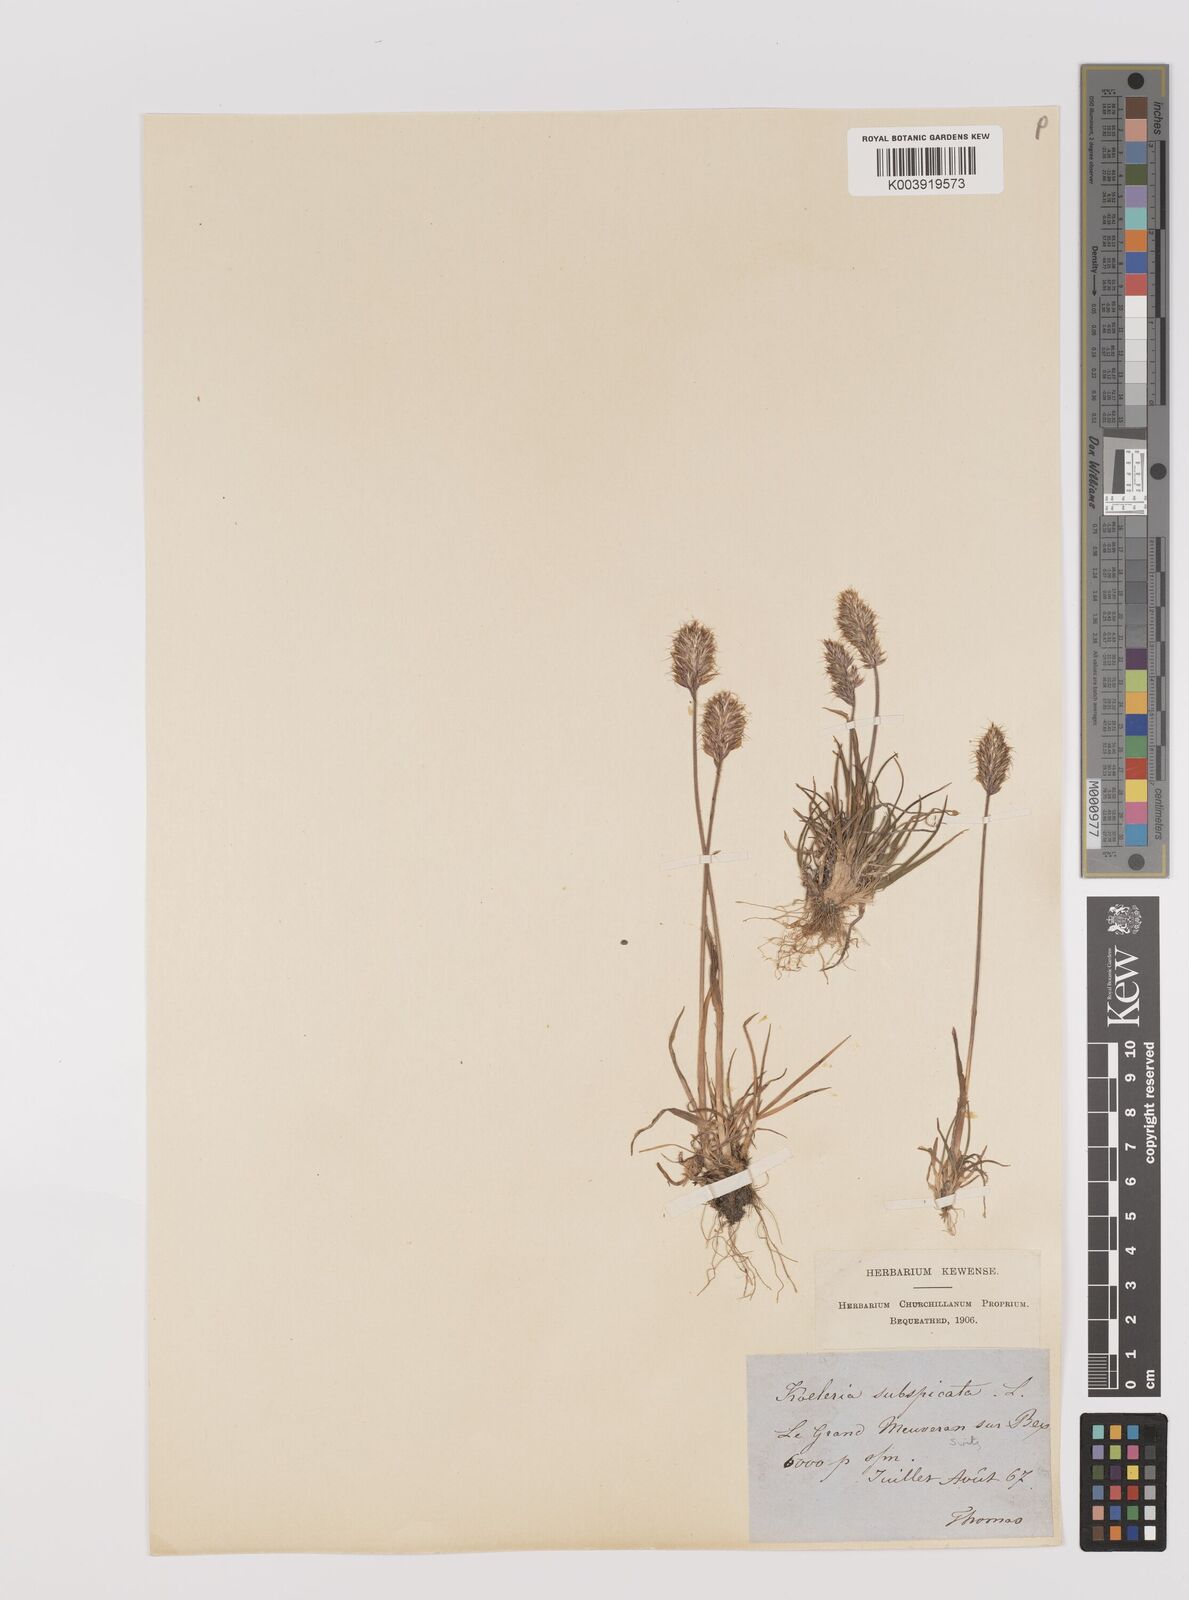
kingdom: Plantae
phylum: Tracheophyta
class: Liliopsida
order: Poales
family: Poaceae
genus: Koeleria
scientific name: Koeleria spicata
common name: Mountain trisetum
